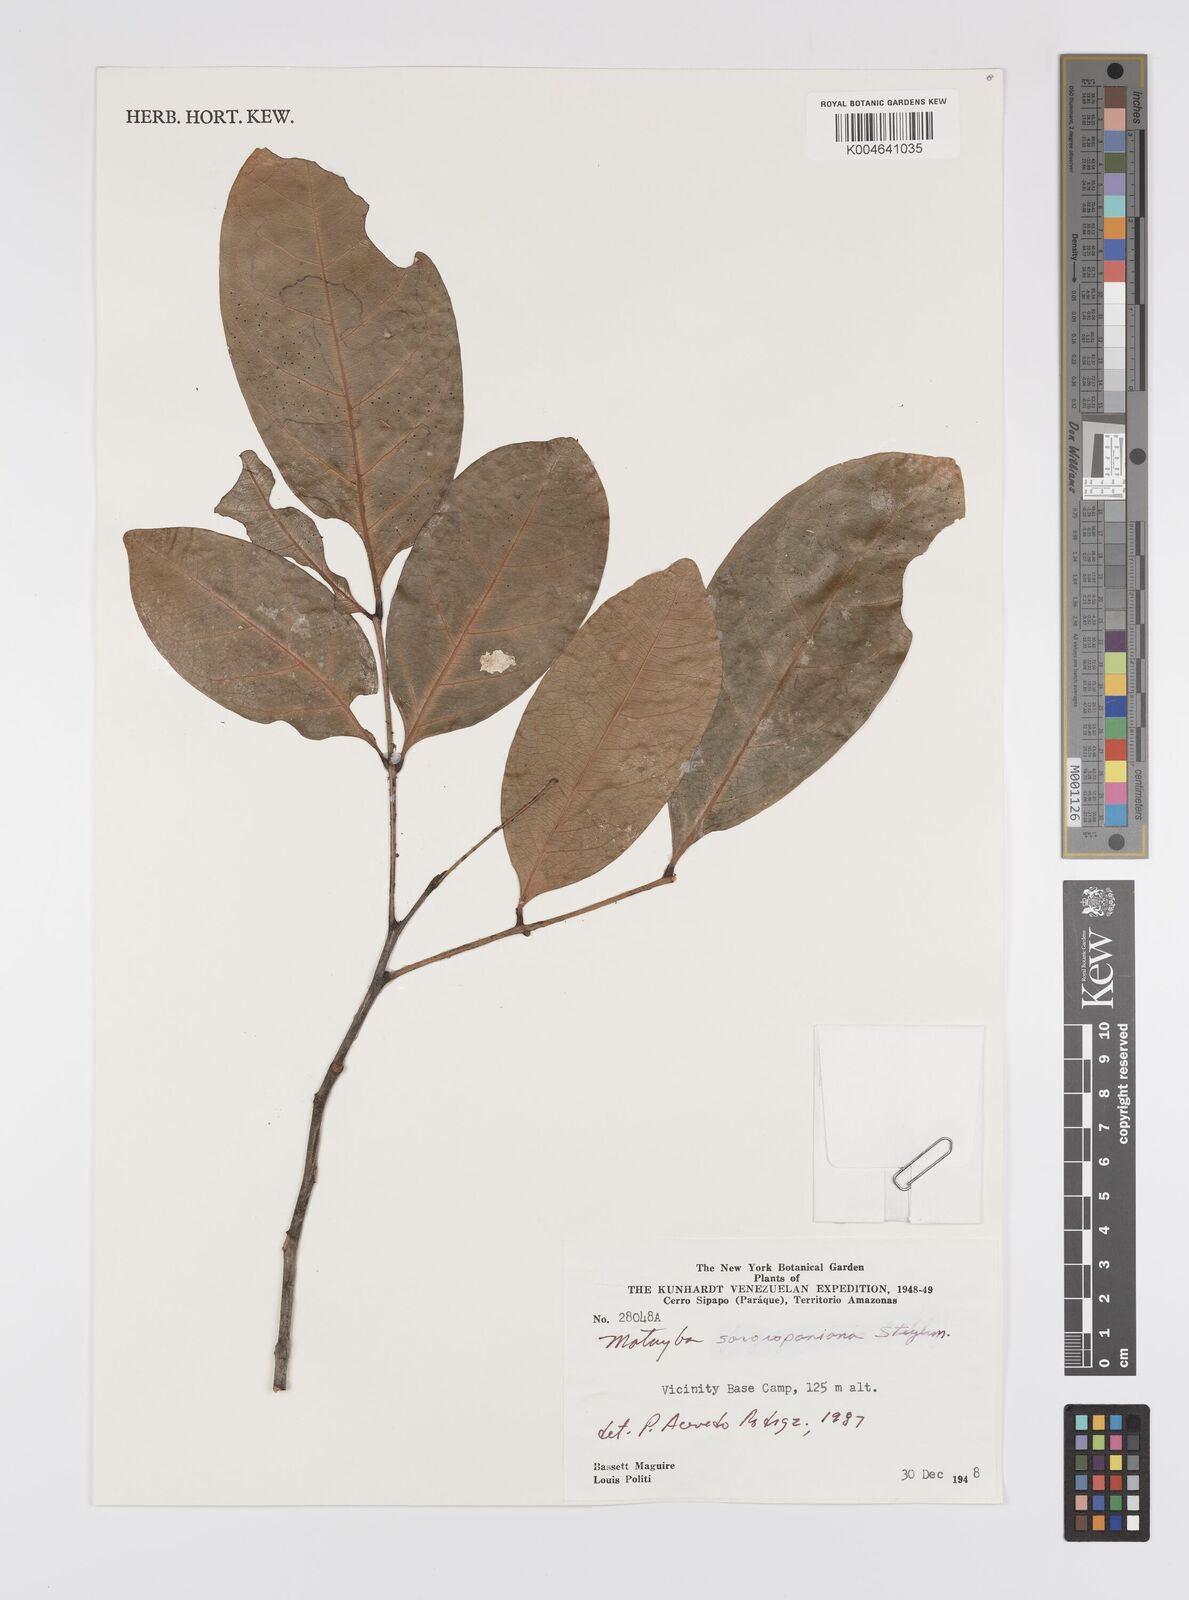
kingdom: Plantae
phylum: Tracheophyta
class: Magnoliopsida
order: Sapindales
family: Sapindaceae
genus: Matayba
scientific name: Matayba spruceana
